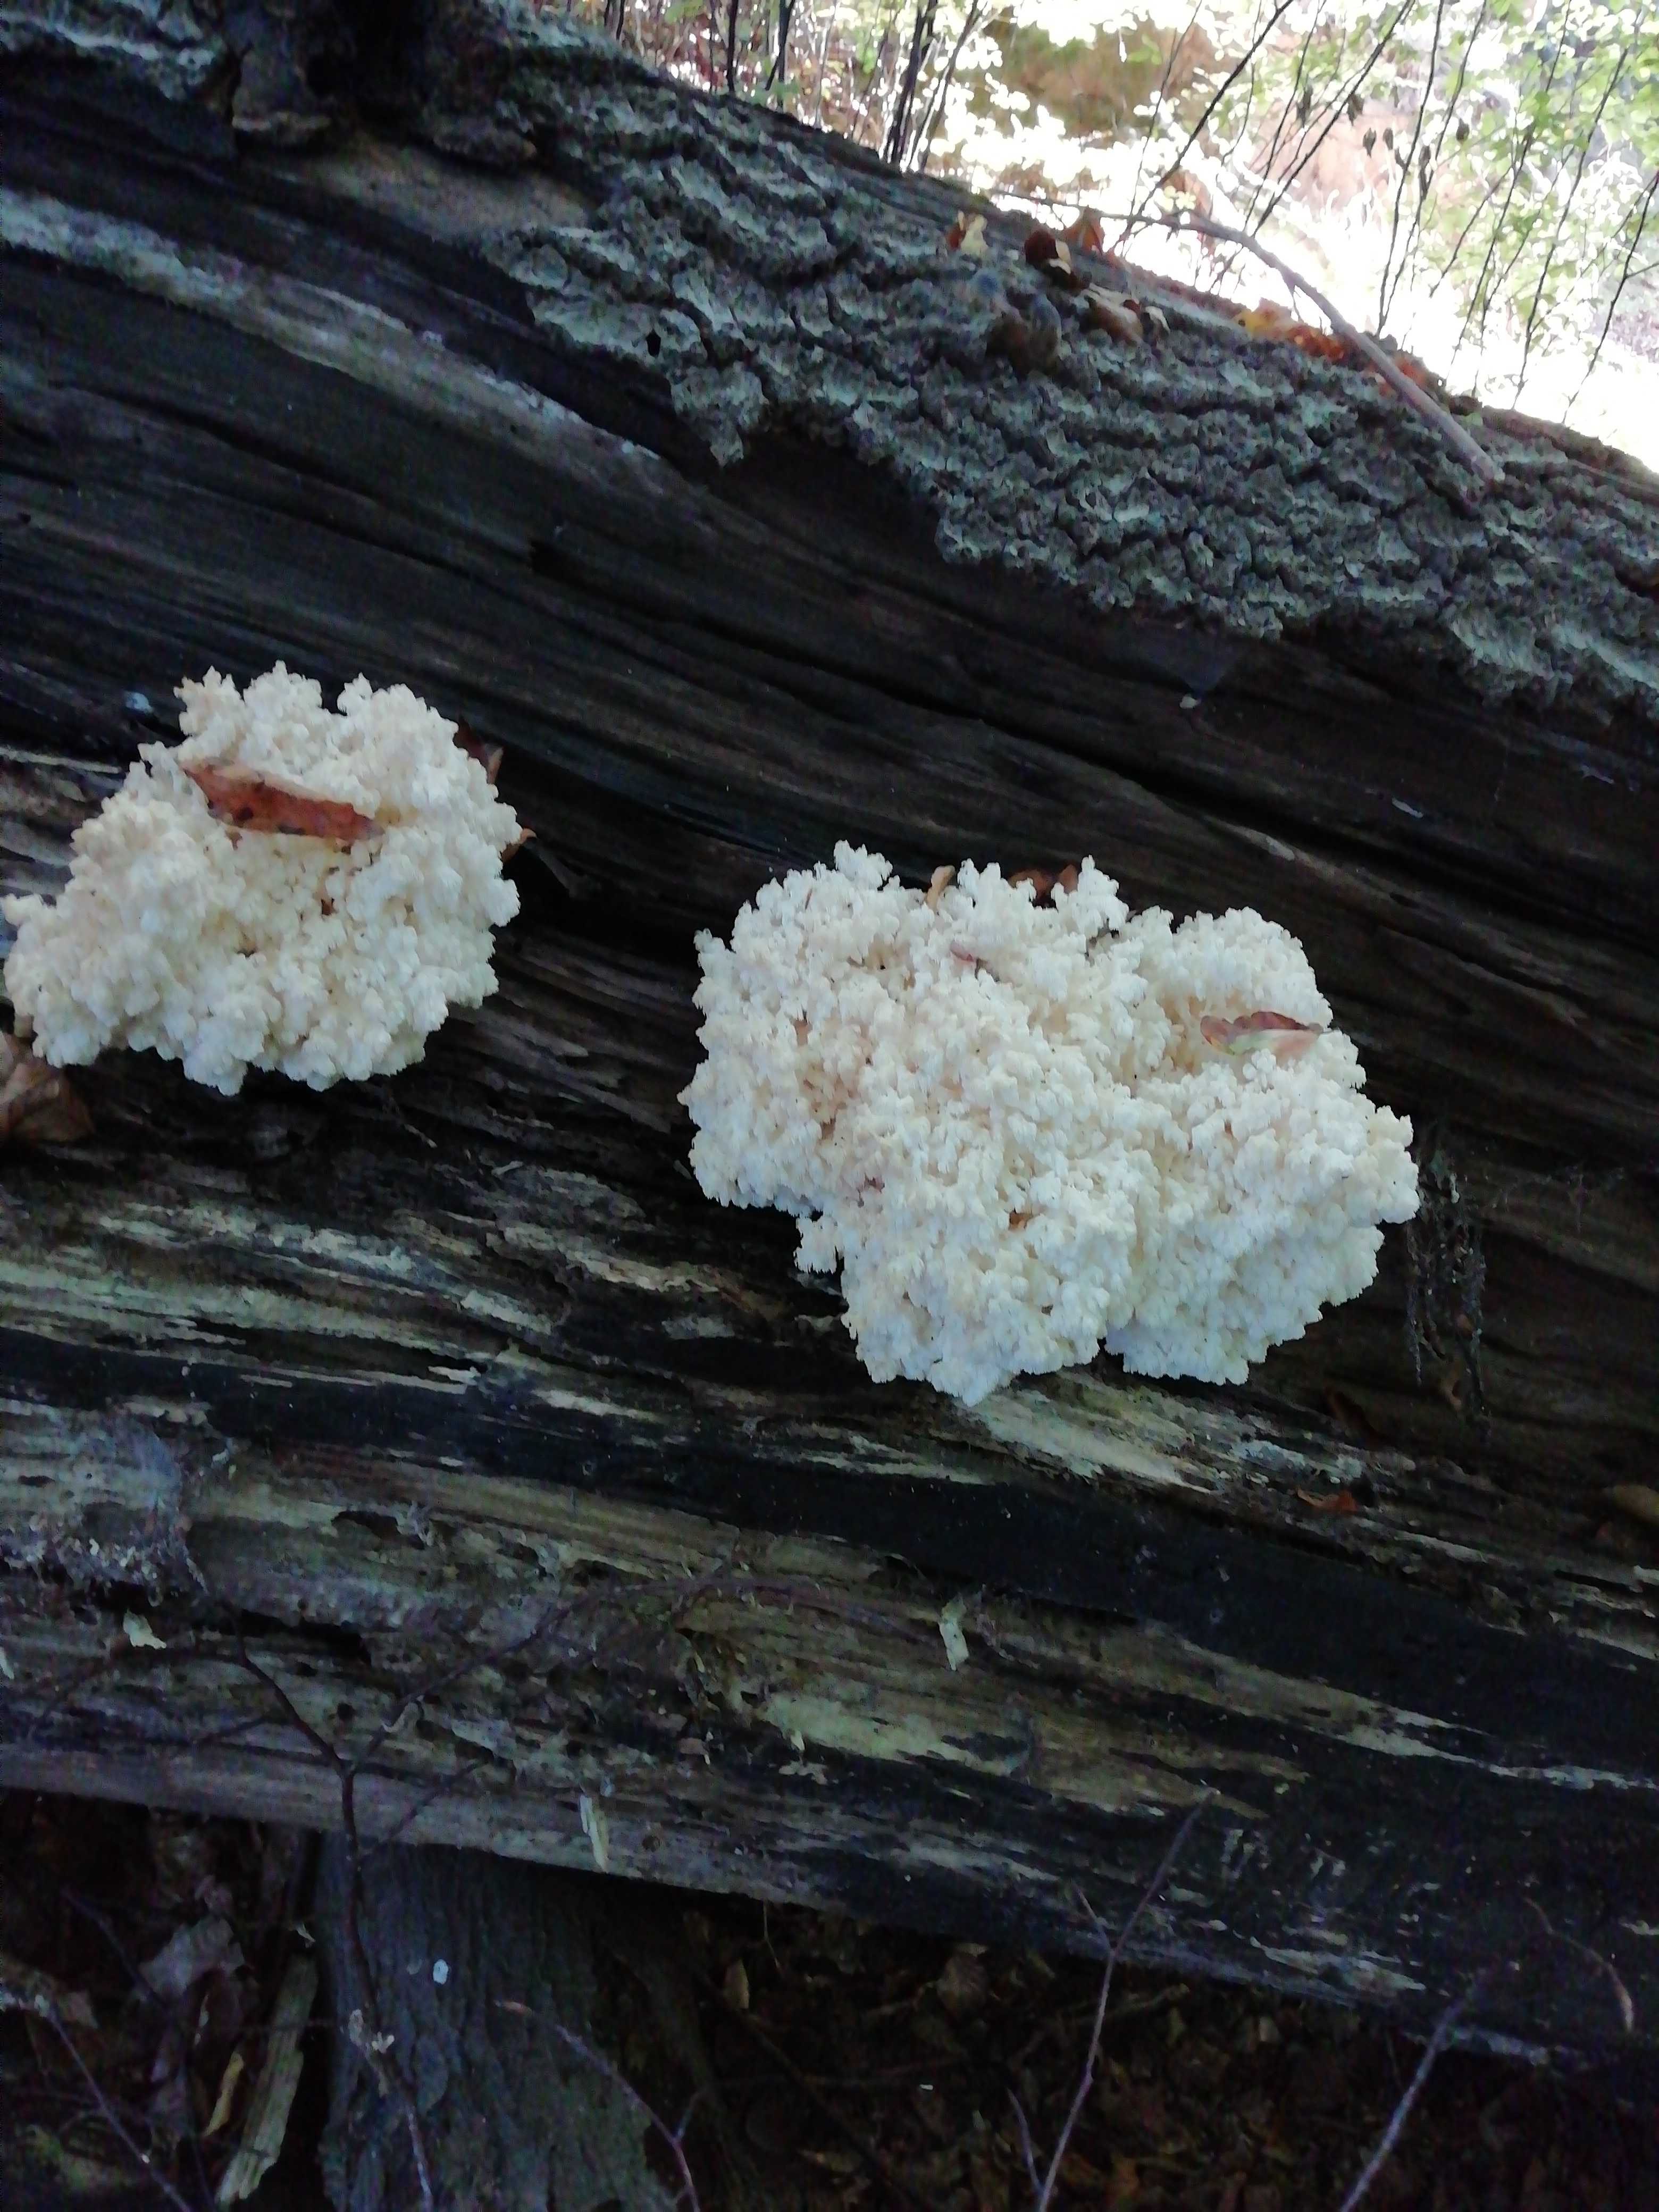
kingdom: Fungi
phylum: Basidiomycota
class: Agaricomycetes
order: Russulales
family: Hericiaceae
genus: Hericium
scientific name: Hericium coralloides
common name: koralpigsvamp
